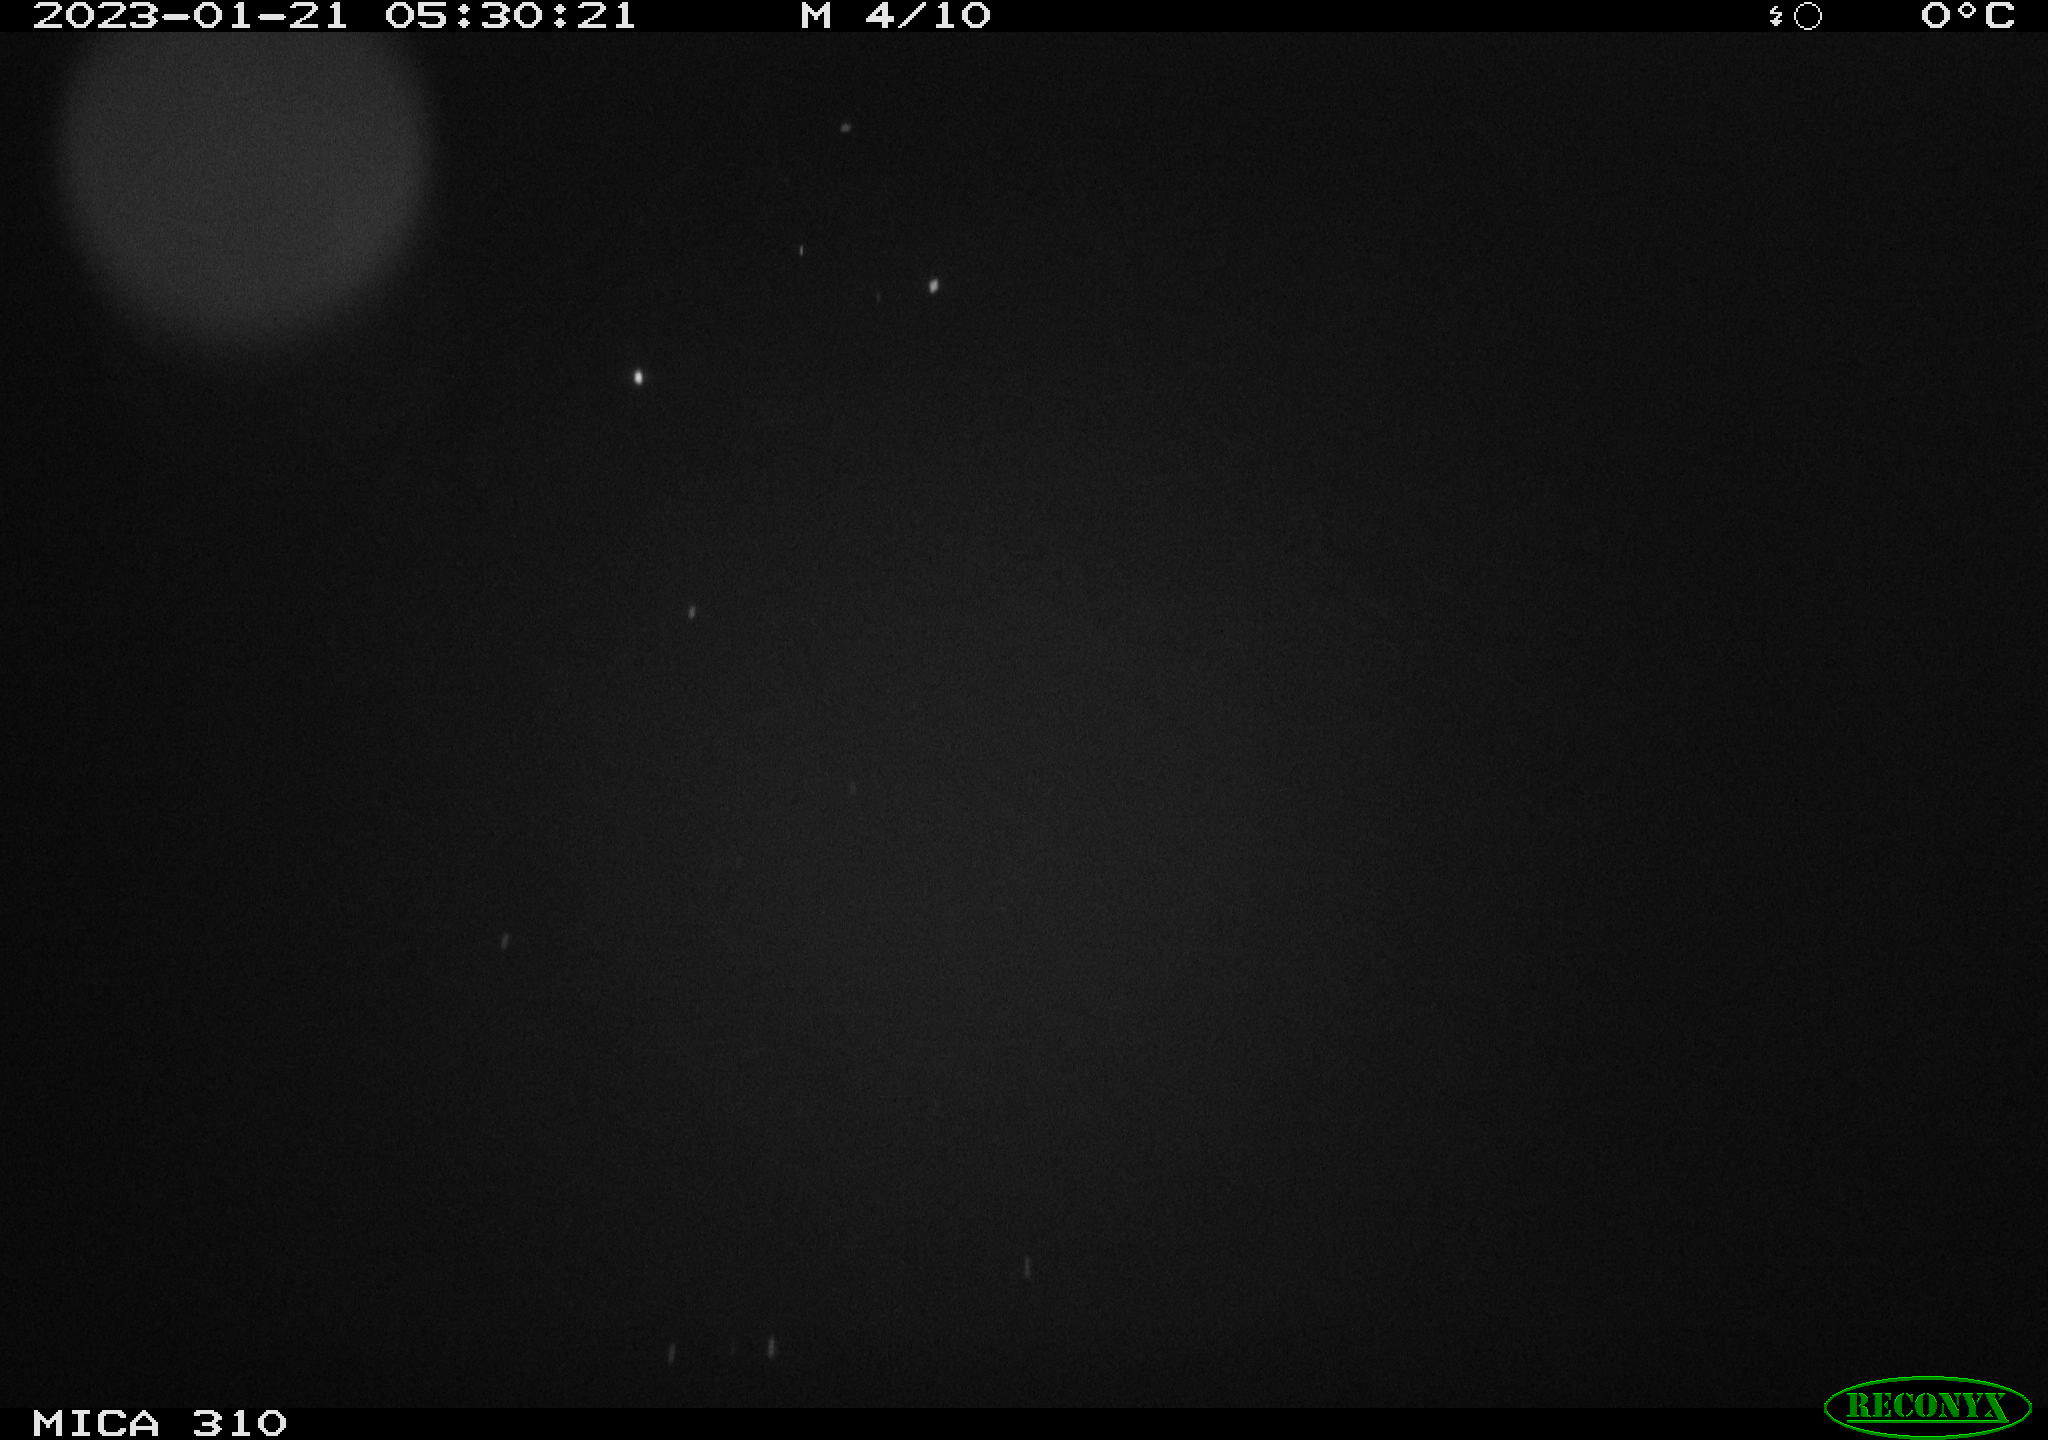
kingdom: Animalia
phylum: Chordata
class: Aves
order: Anseriformes
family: Anatidae
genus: Anas
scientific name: Anas
